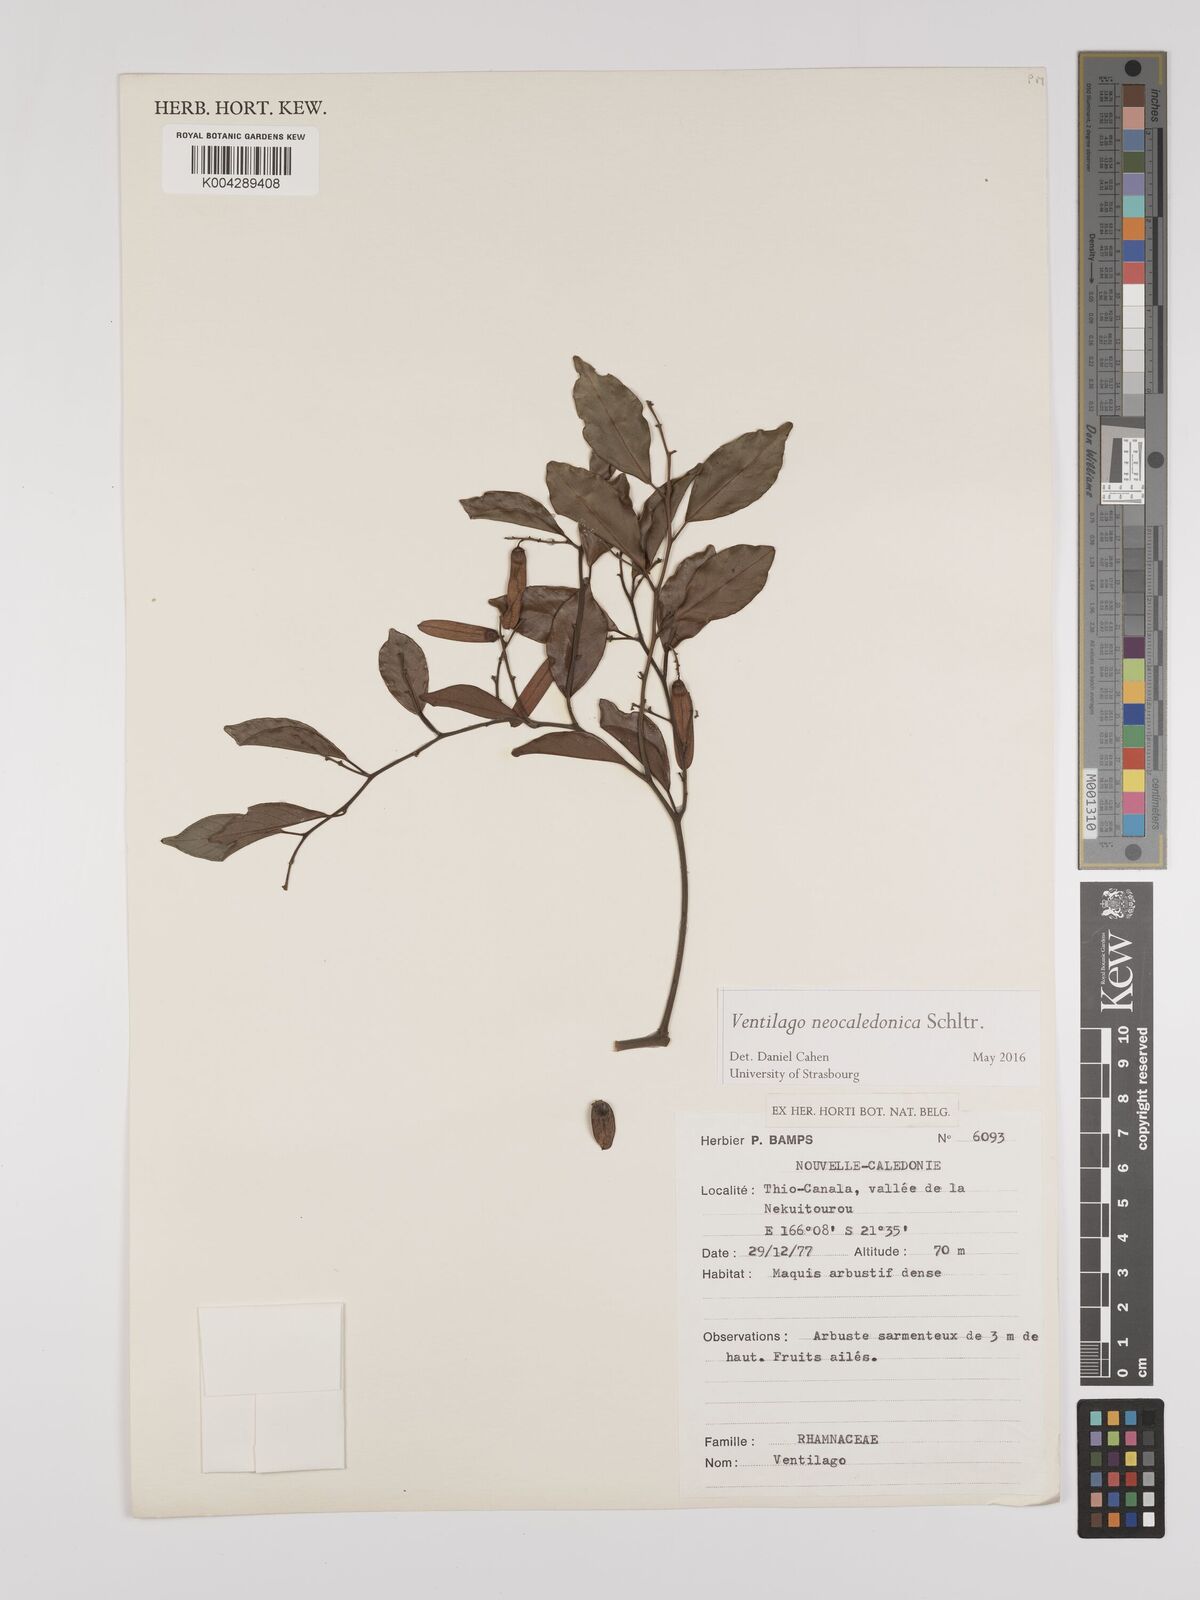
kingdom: Plantae
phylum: Tracheophyta
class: Magnoliopsida
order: Rosales
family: Rhamnaceae
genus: Ventilago
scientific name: Ventilago neocaledonica
